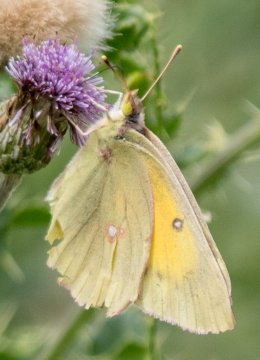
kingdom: Animalia
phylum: Arthropoda
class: Insecta
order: Lepidoptera
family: Pieridae
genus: Colias
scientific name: Colias eurytheme
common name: Orange Sulphur
